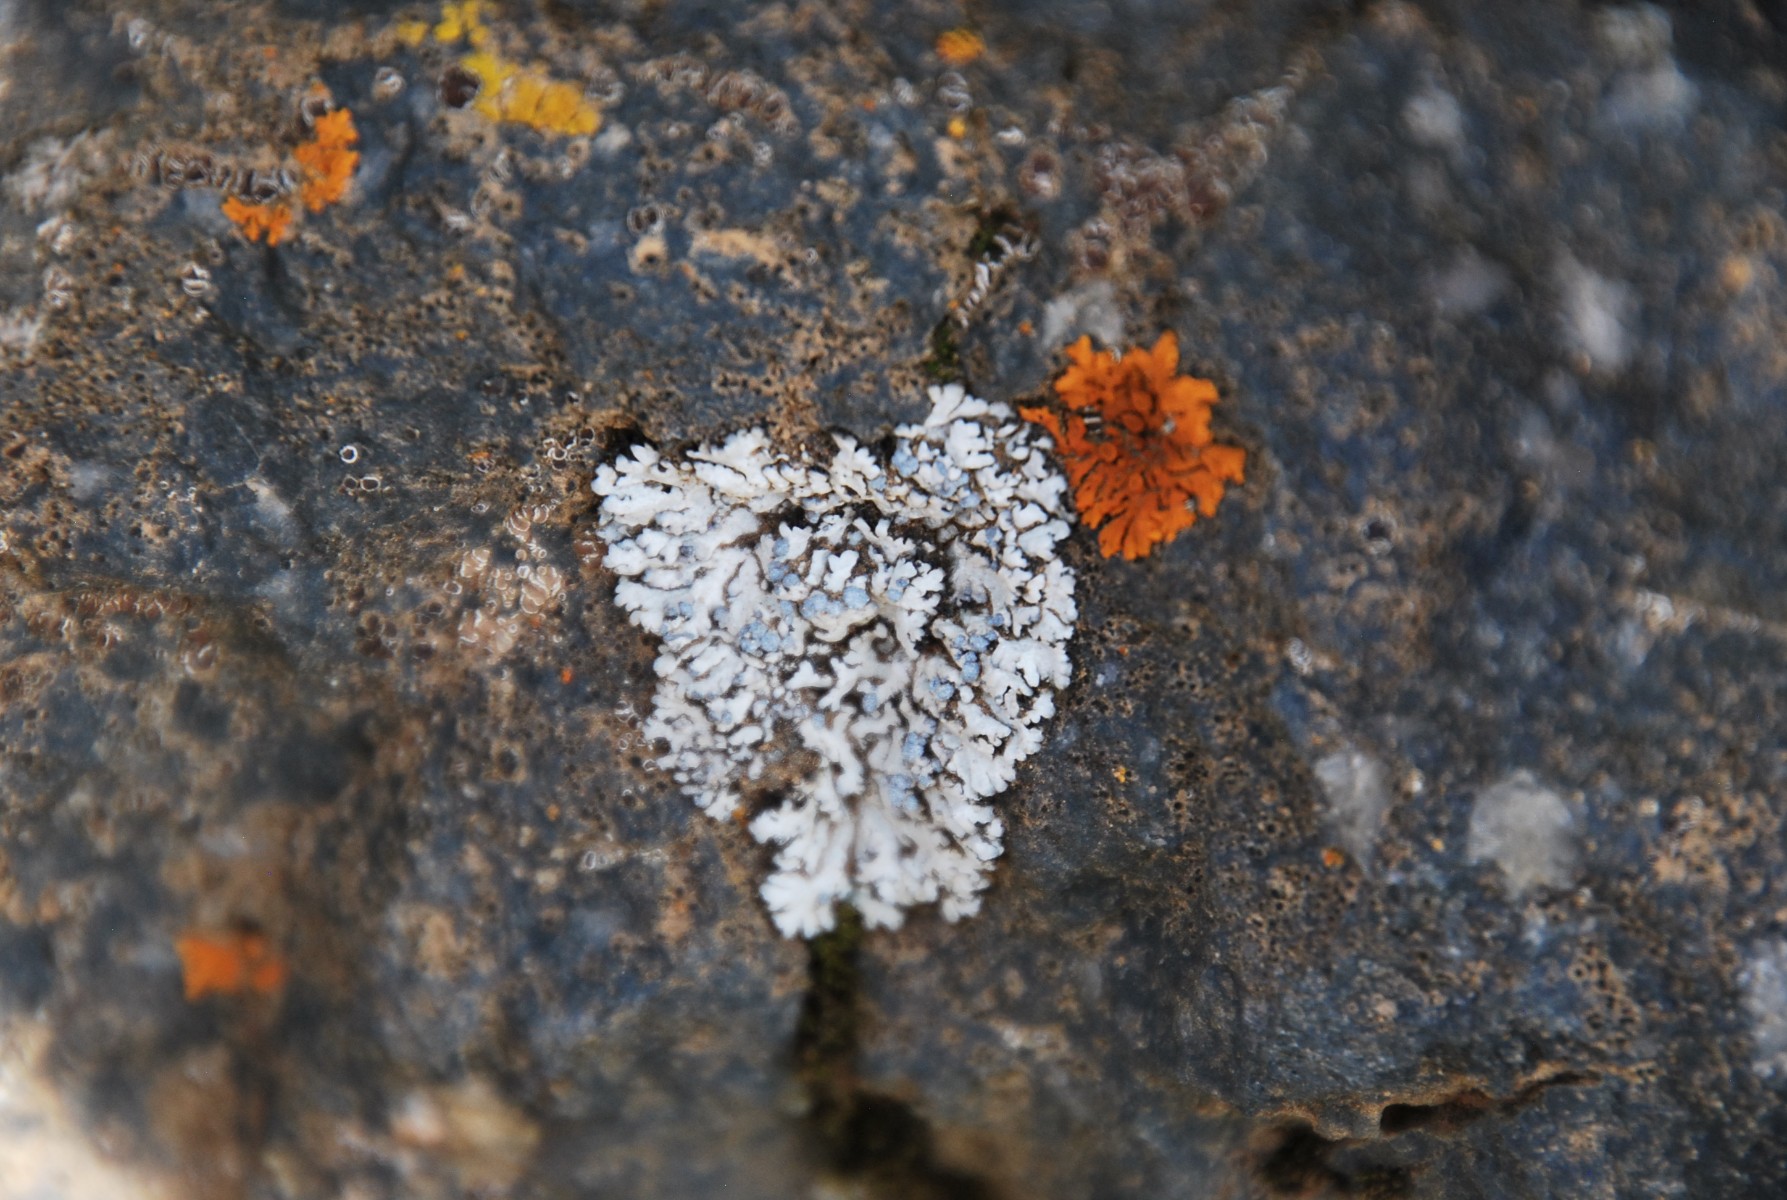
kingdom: Fungi
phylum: Ascomycota
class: Lecanoromycetes
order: Caliciales
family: Physciaceae
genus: Physcia
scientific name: Physcia caesia
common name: blågrå rosetlav
